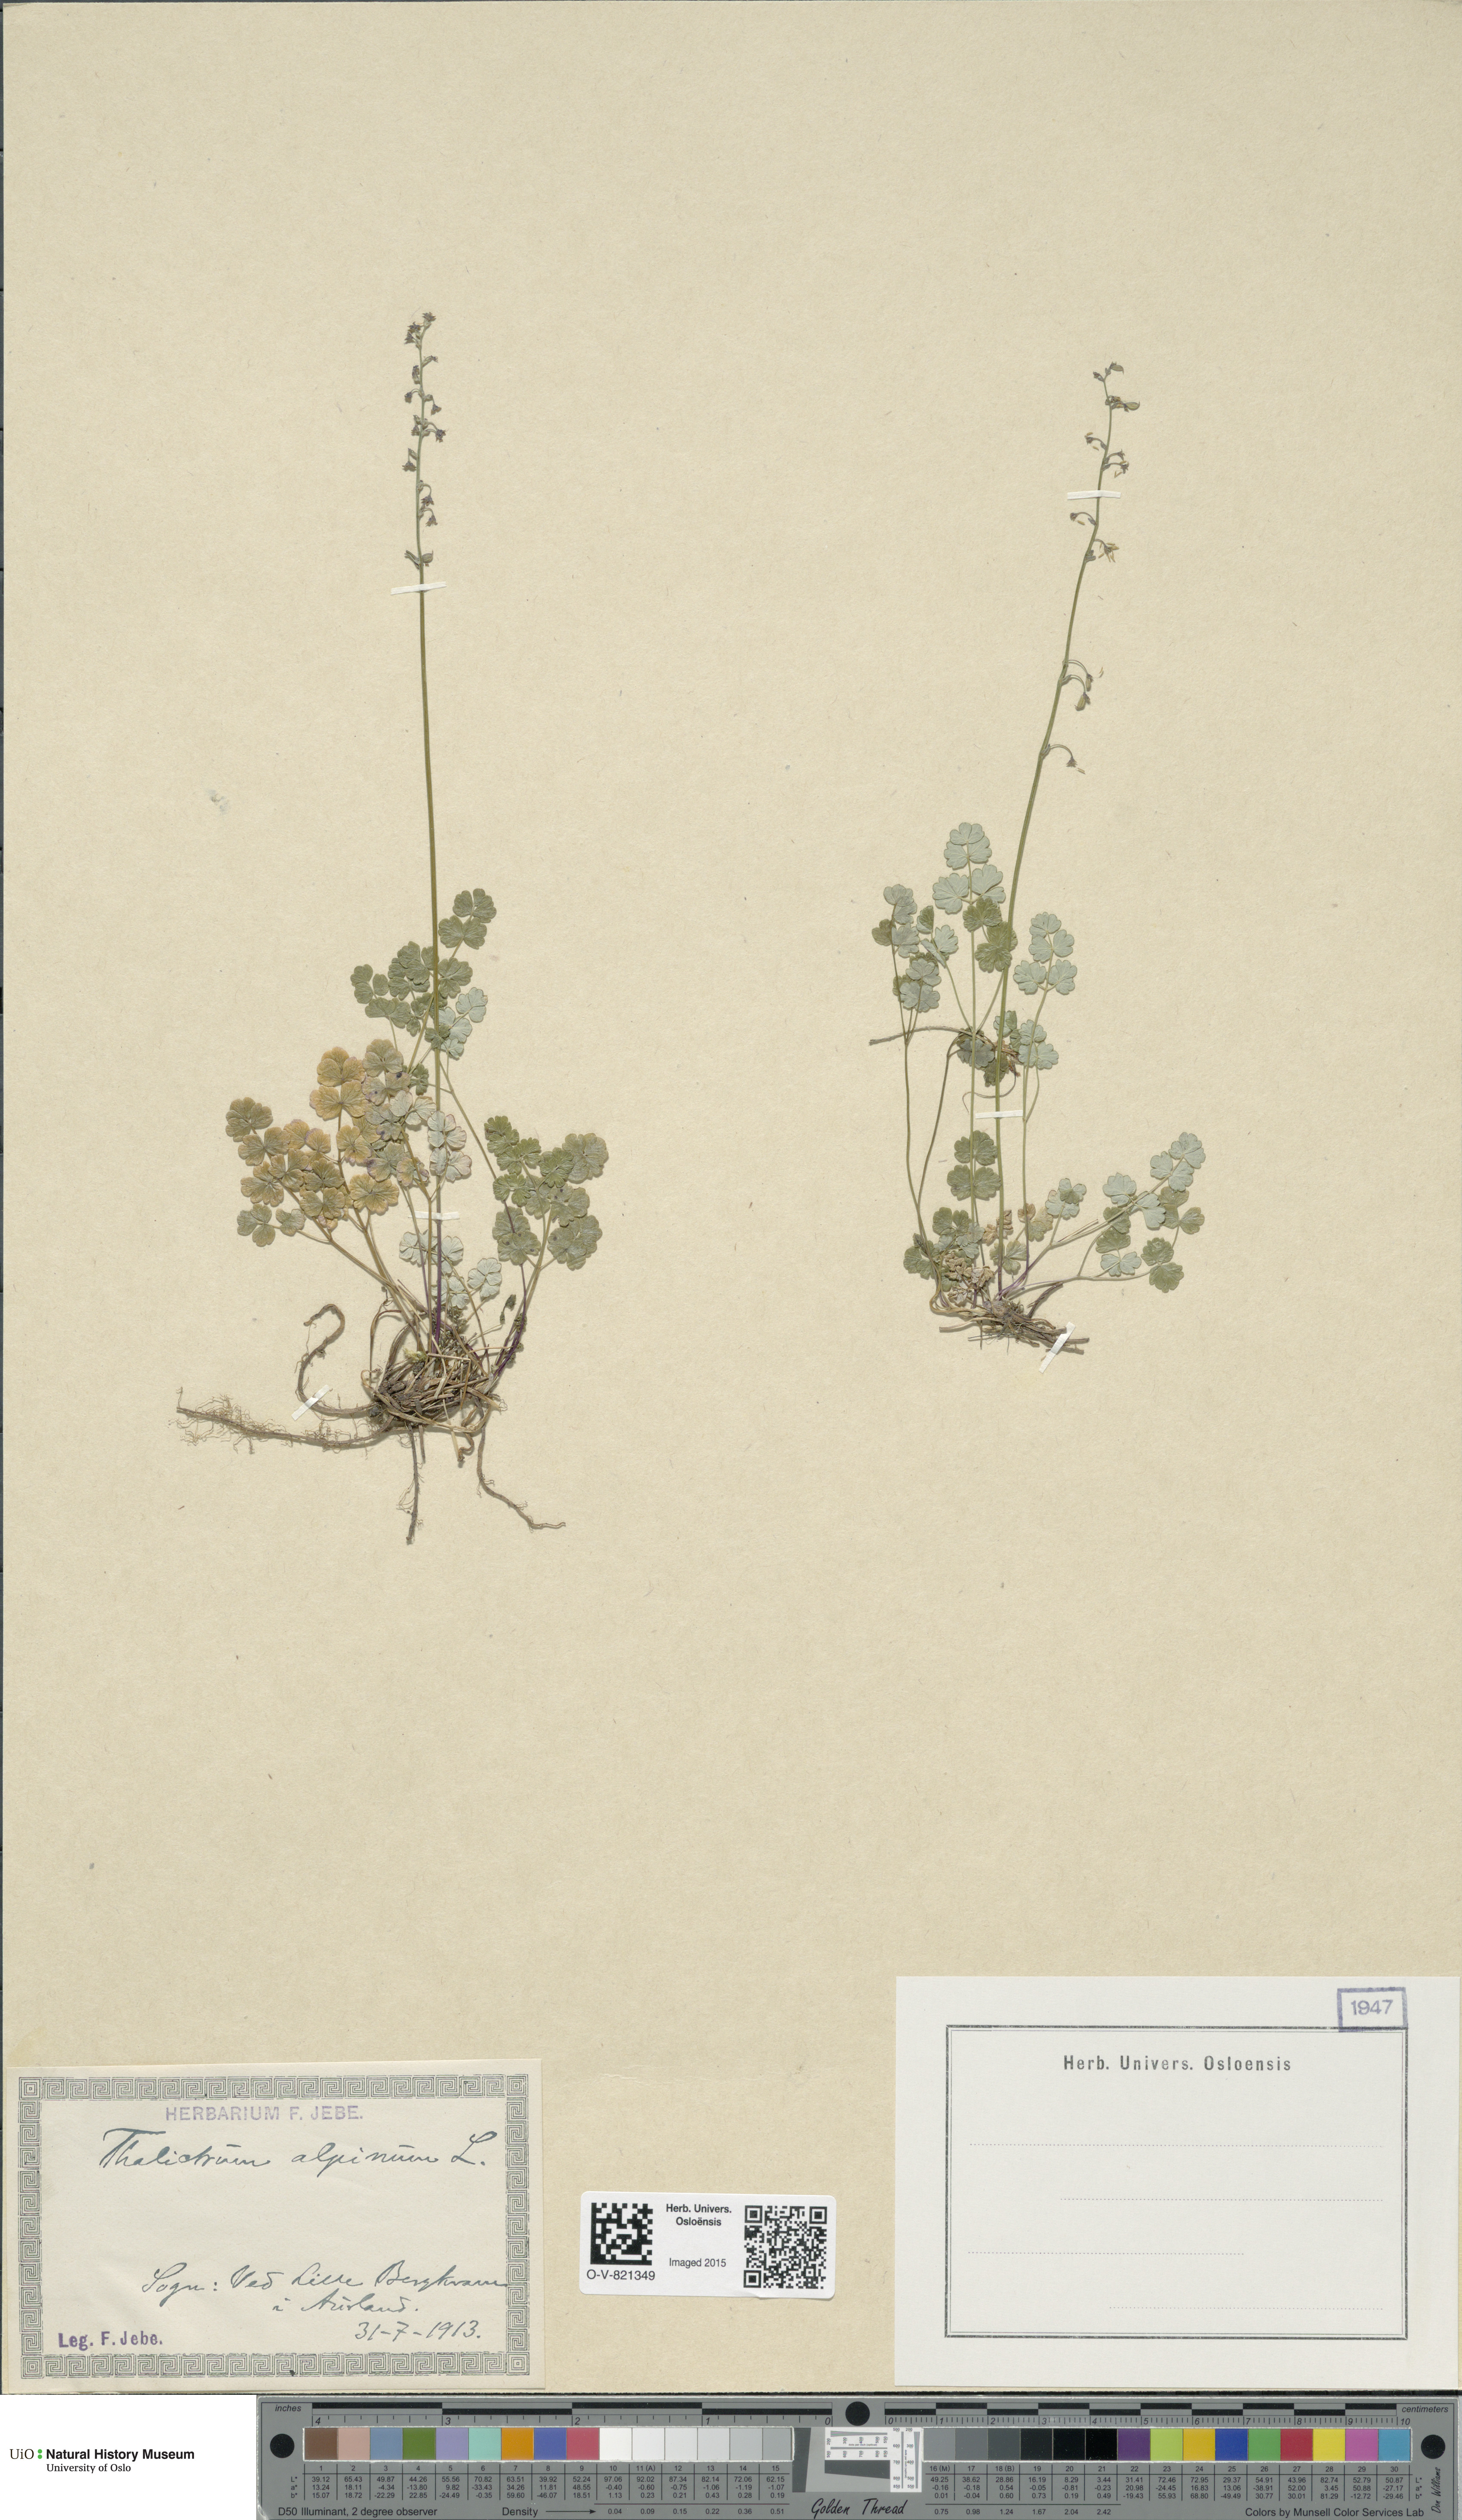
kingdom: Plantae
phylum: Tracheophyta
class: Magnoliopsida
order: Ranunculales
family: Ranunculaceae
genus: Thalictrum
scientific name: Thalictrum alpinum
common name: Alpine meadow-rue
